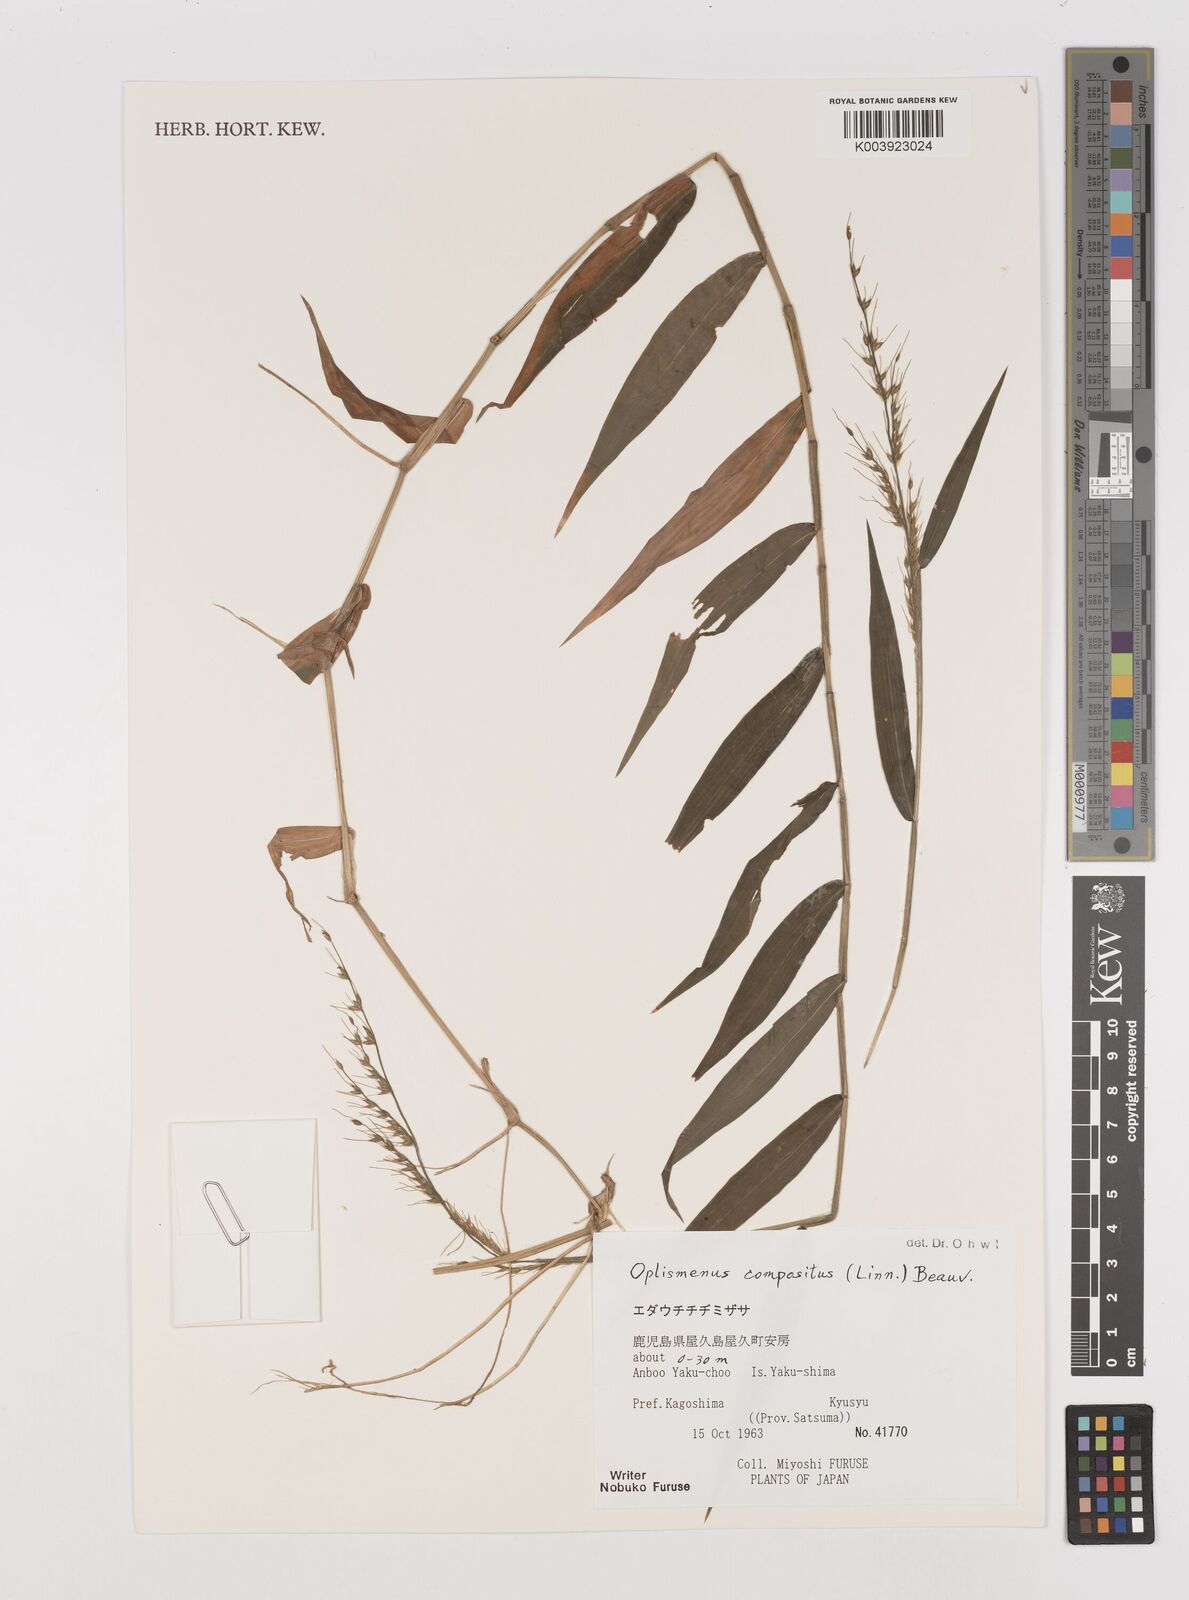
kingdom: Plantae
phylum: Tracheophyta
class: Liliopsida
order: Poales
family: Poaceae
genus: Oplismenus
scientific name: Oplismenus compositus
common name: Running mountain grass
